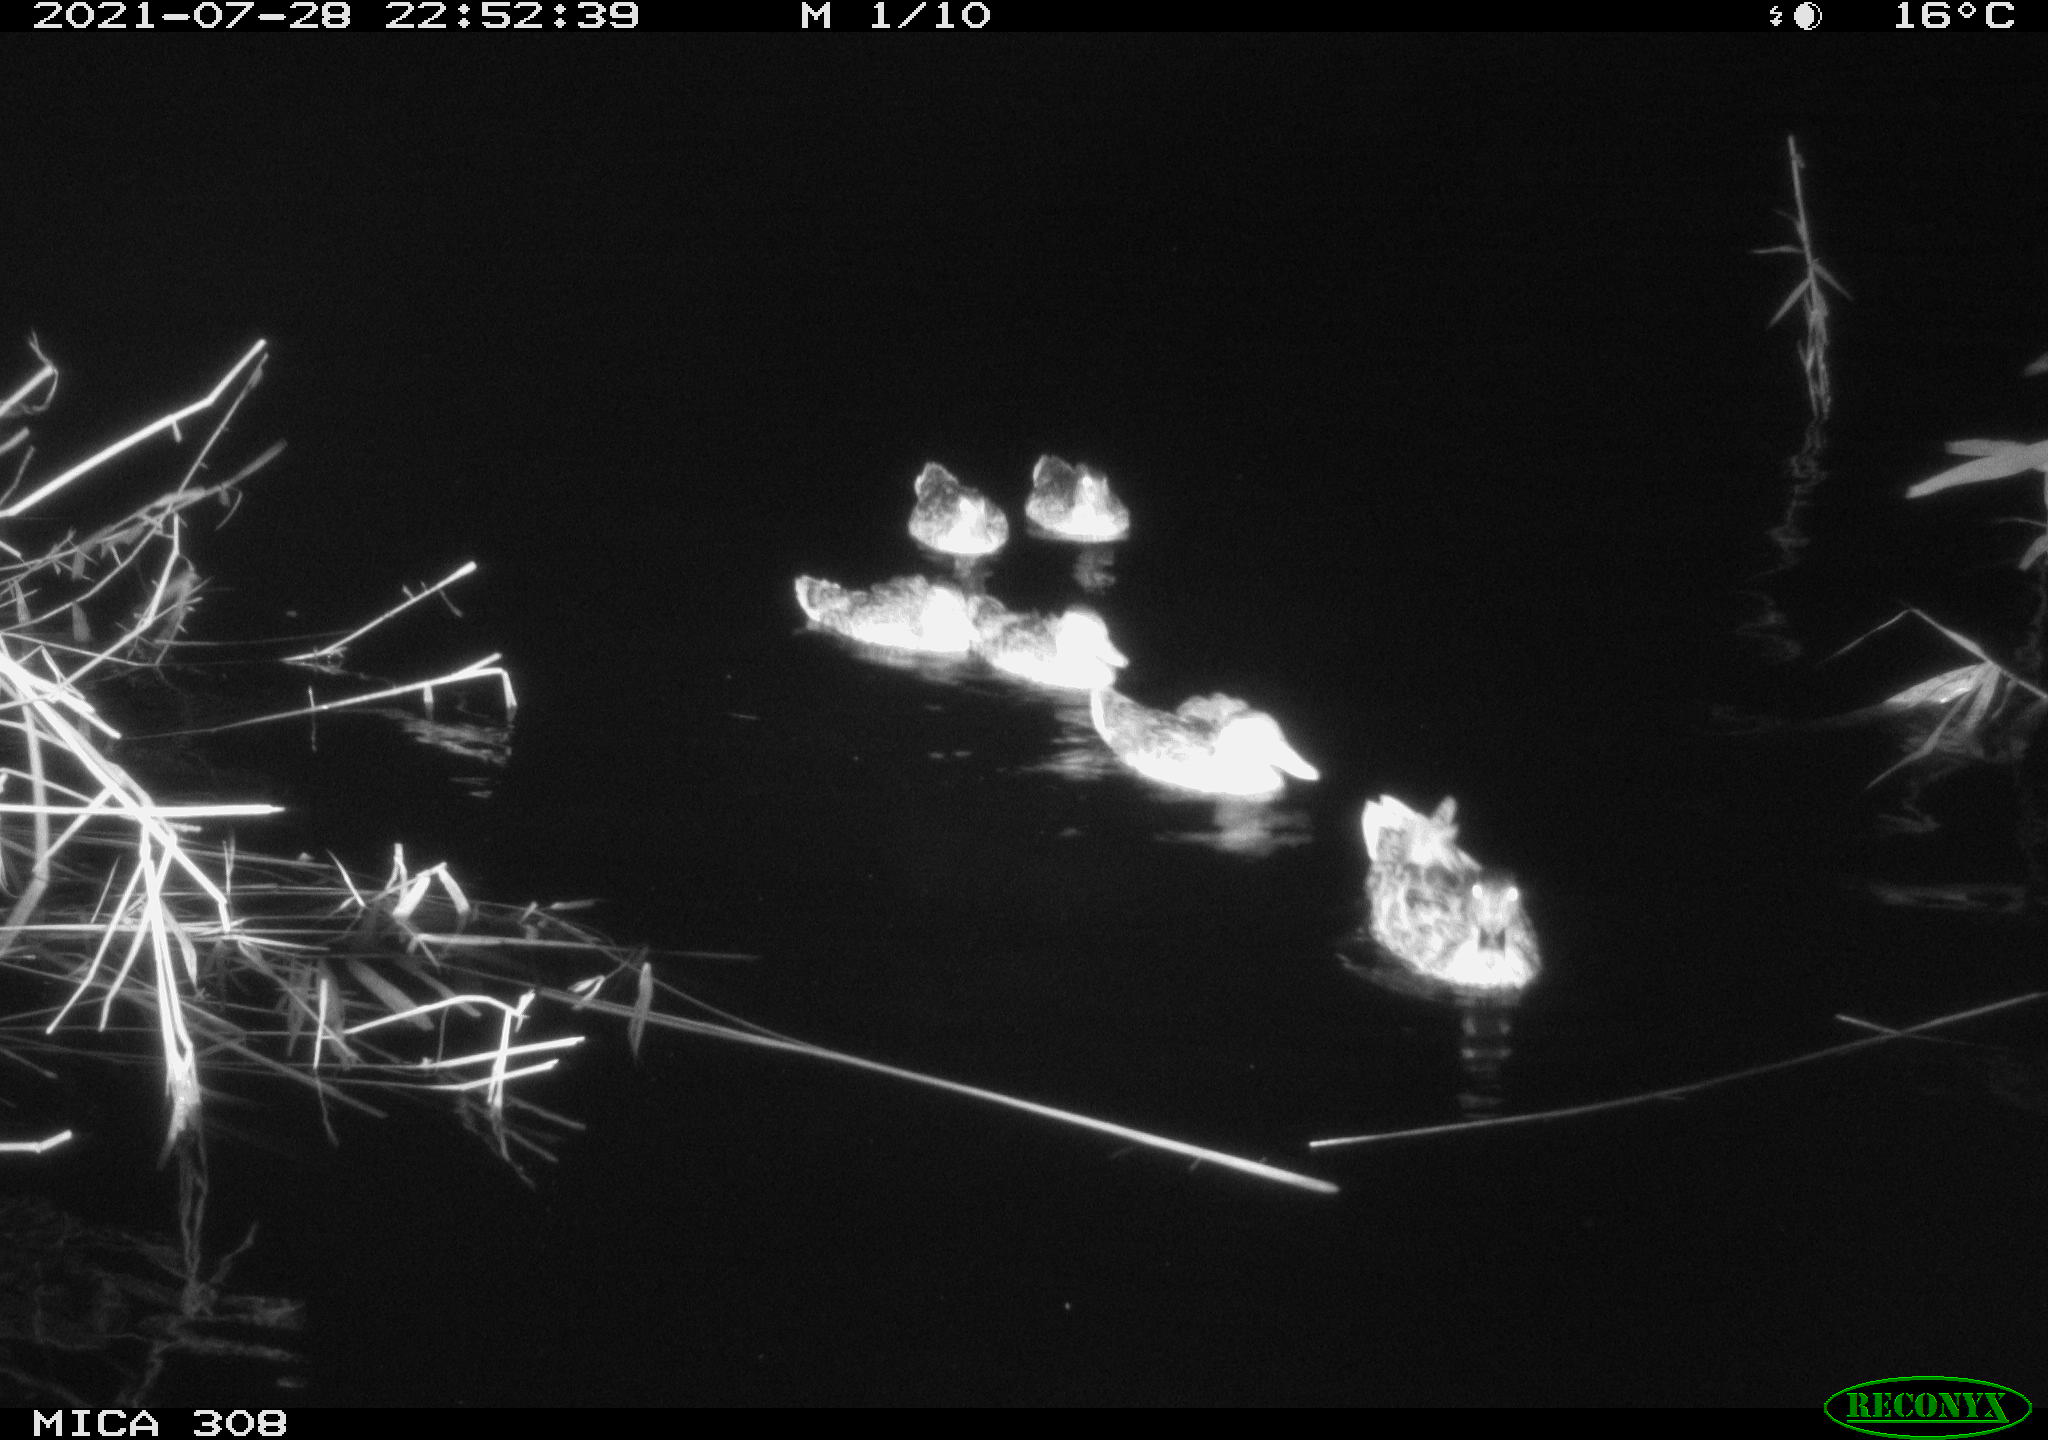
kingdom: Animalia
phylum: Chordata
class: Aves
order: Anseriformes
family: Anatidae
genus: Anas
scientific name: Anas platyrhynchos
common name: Mallard
